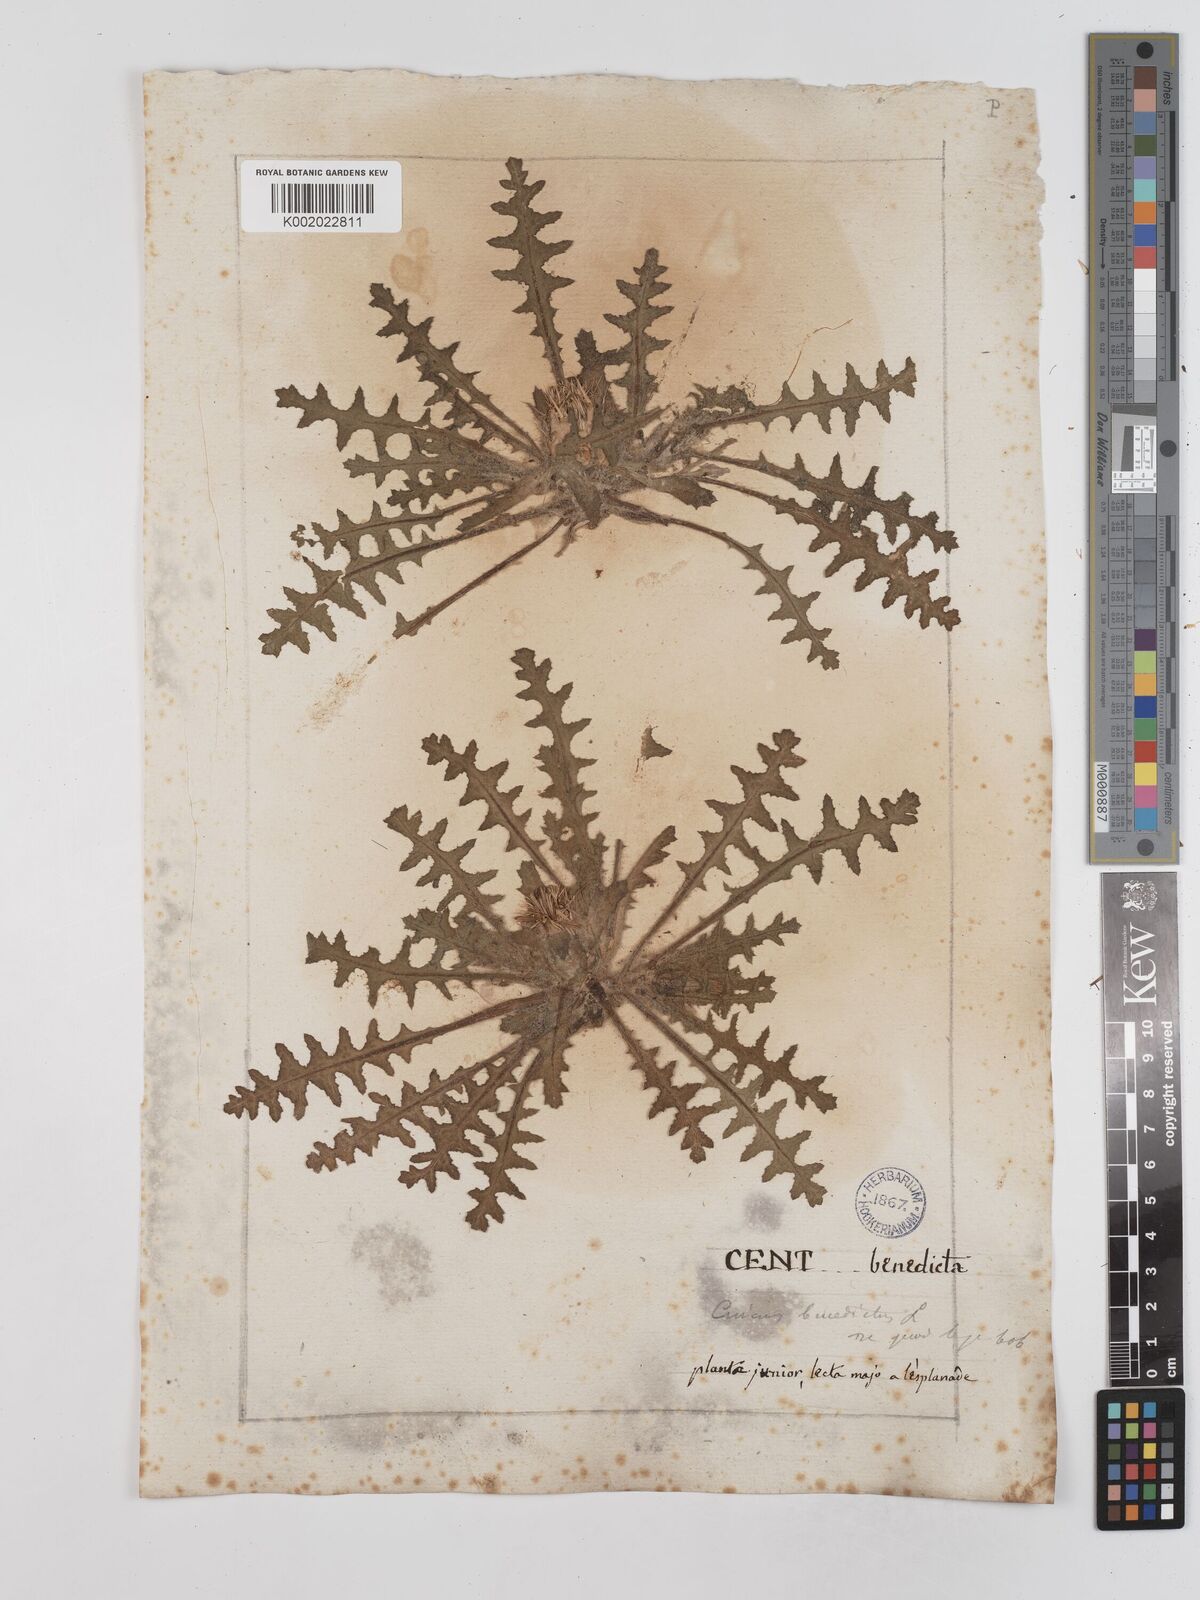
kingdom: Plantae
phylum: Tracheophyta
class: Magnoliopsida
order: Asterales
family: Asteraceae
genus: Centaurea
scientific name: Centaurea benedicta
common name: Blessed thistle
